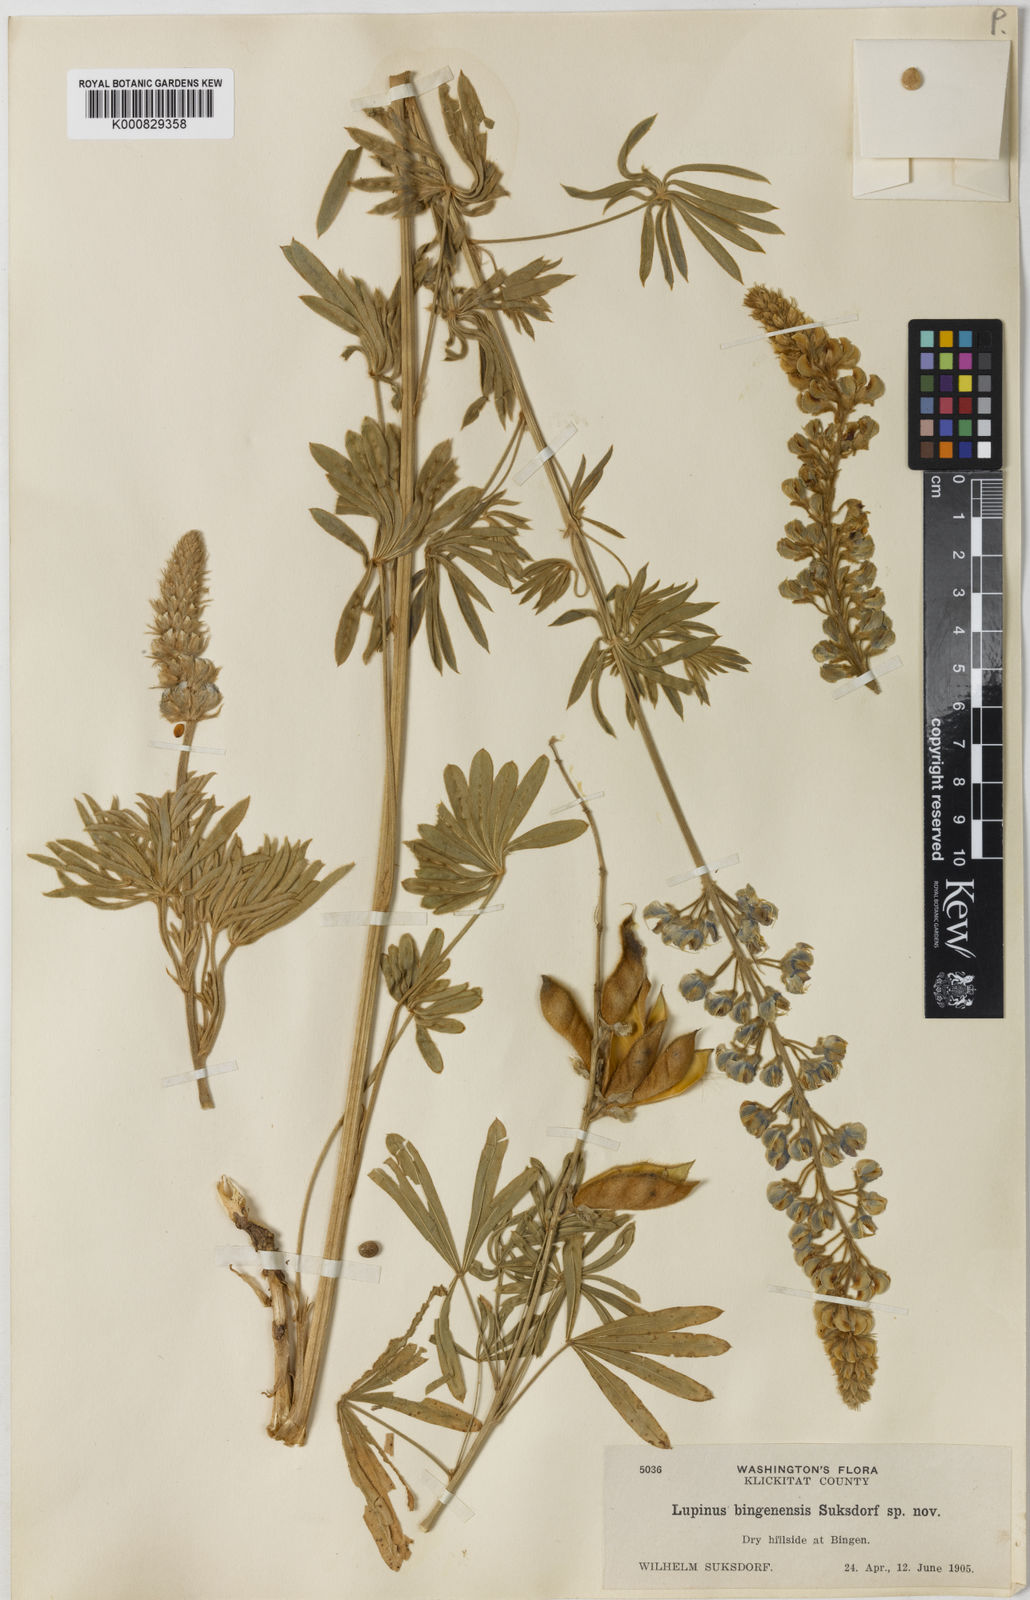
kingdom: Plantae
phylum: Tracheophyta
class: Magnoliopsida
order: Fabales
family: Fabaceae
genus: Lupinus
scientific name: Lupinus bingenensis
